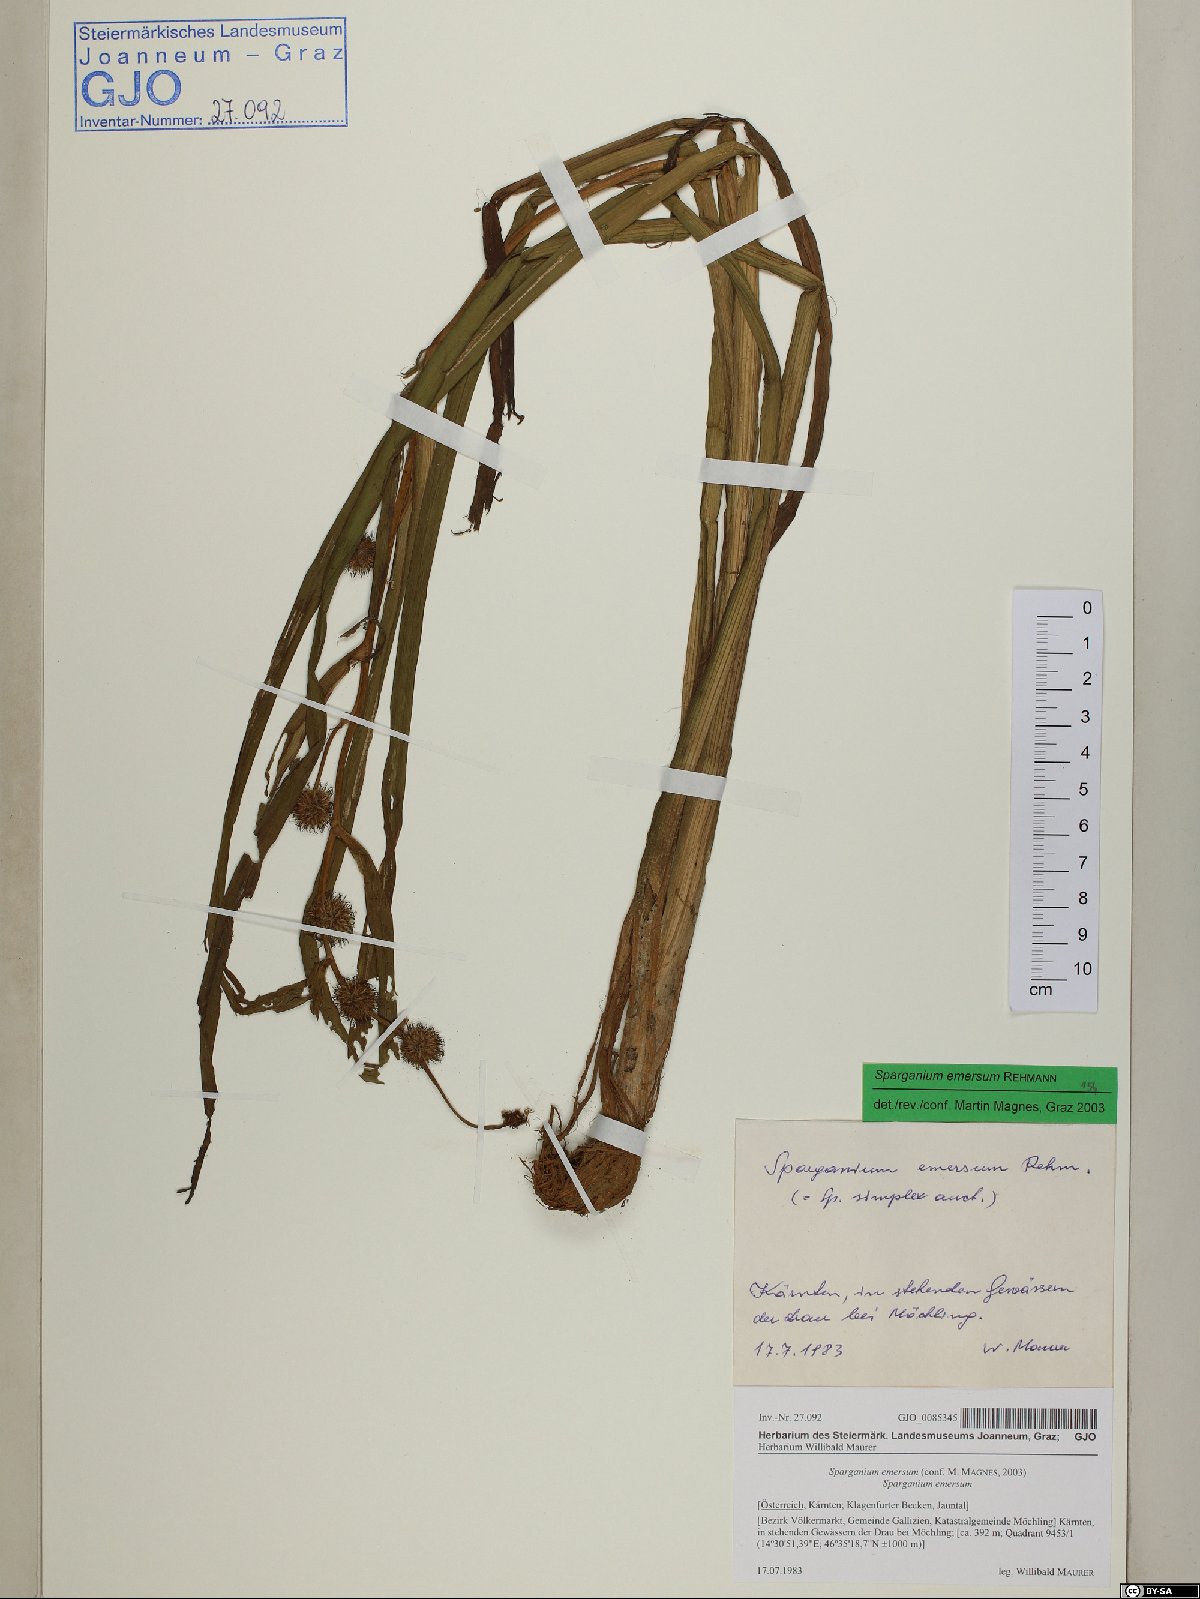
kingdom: Plantae
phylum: Tracheophyta
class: Liliopsida
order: Poales
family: Typhaceae
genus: Sparganium
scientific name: Sparganium emersum
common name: Unbranched bur-reed
